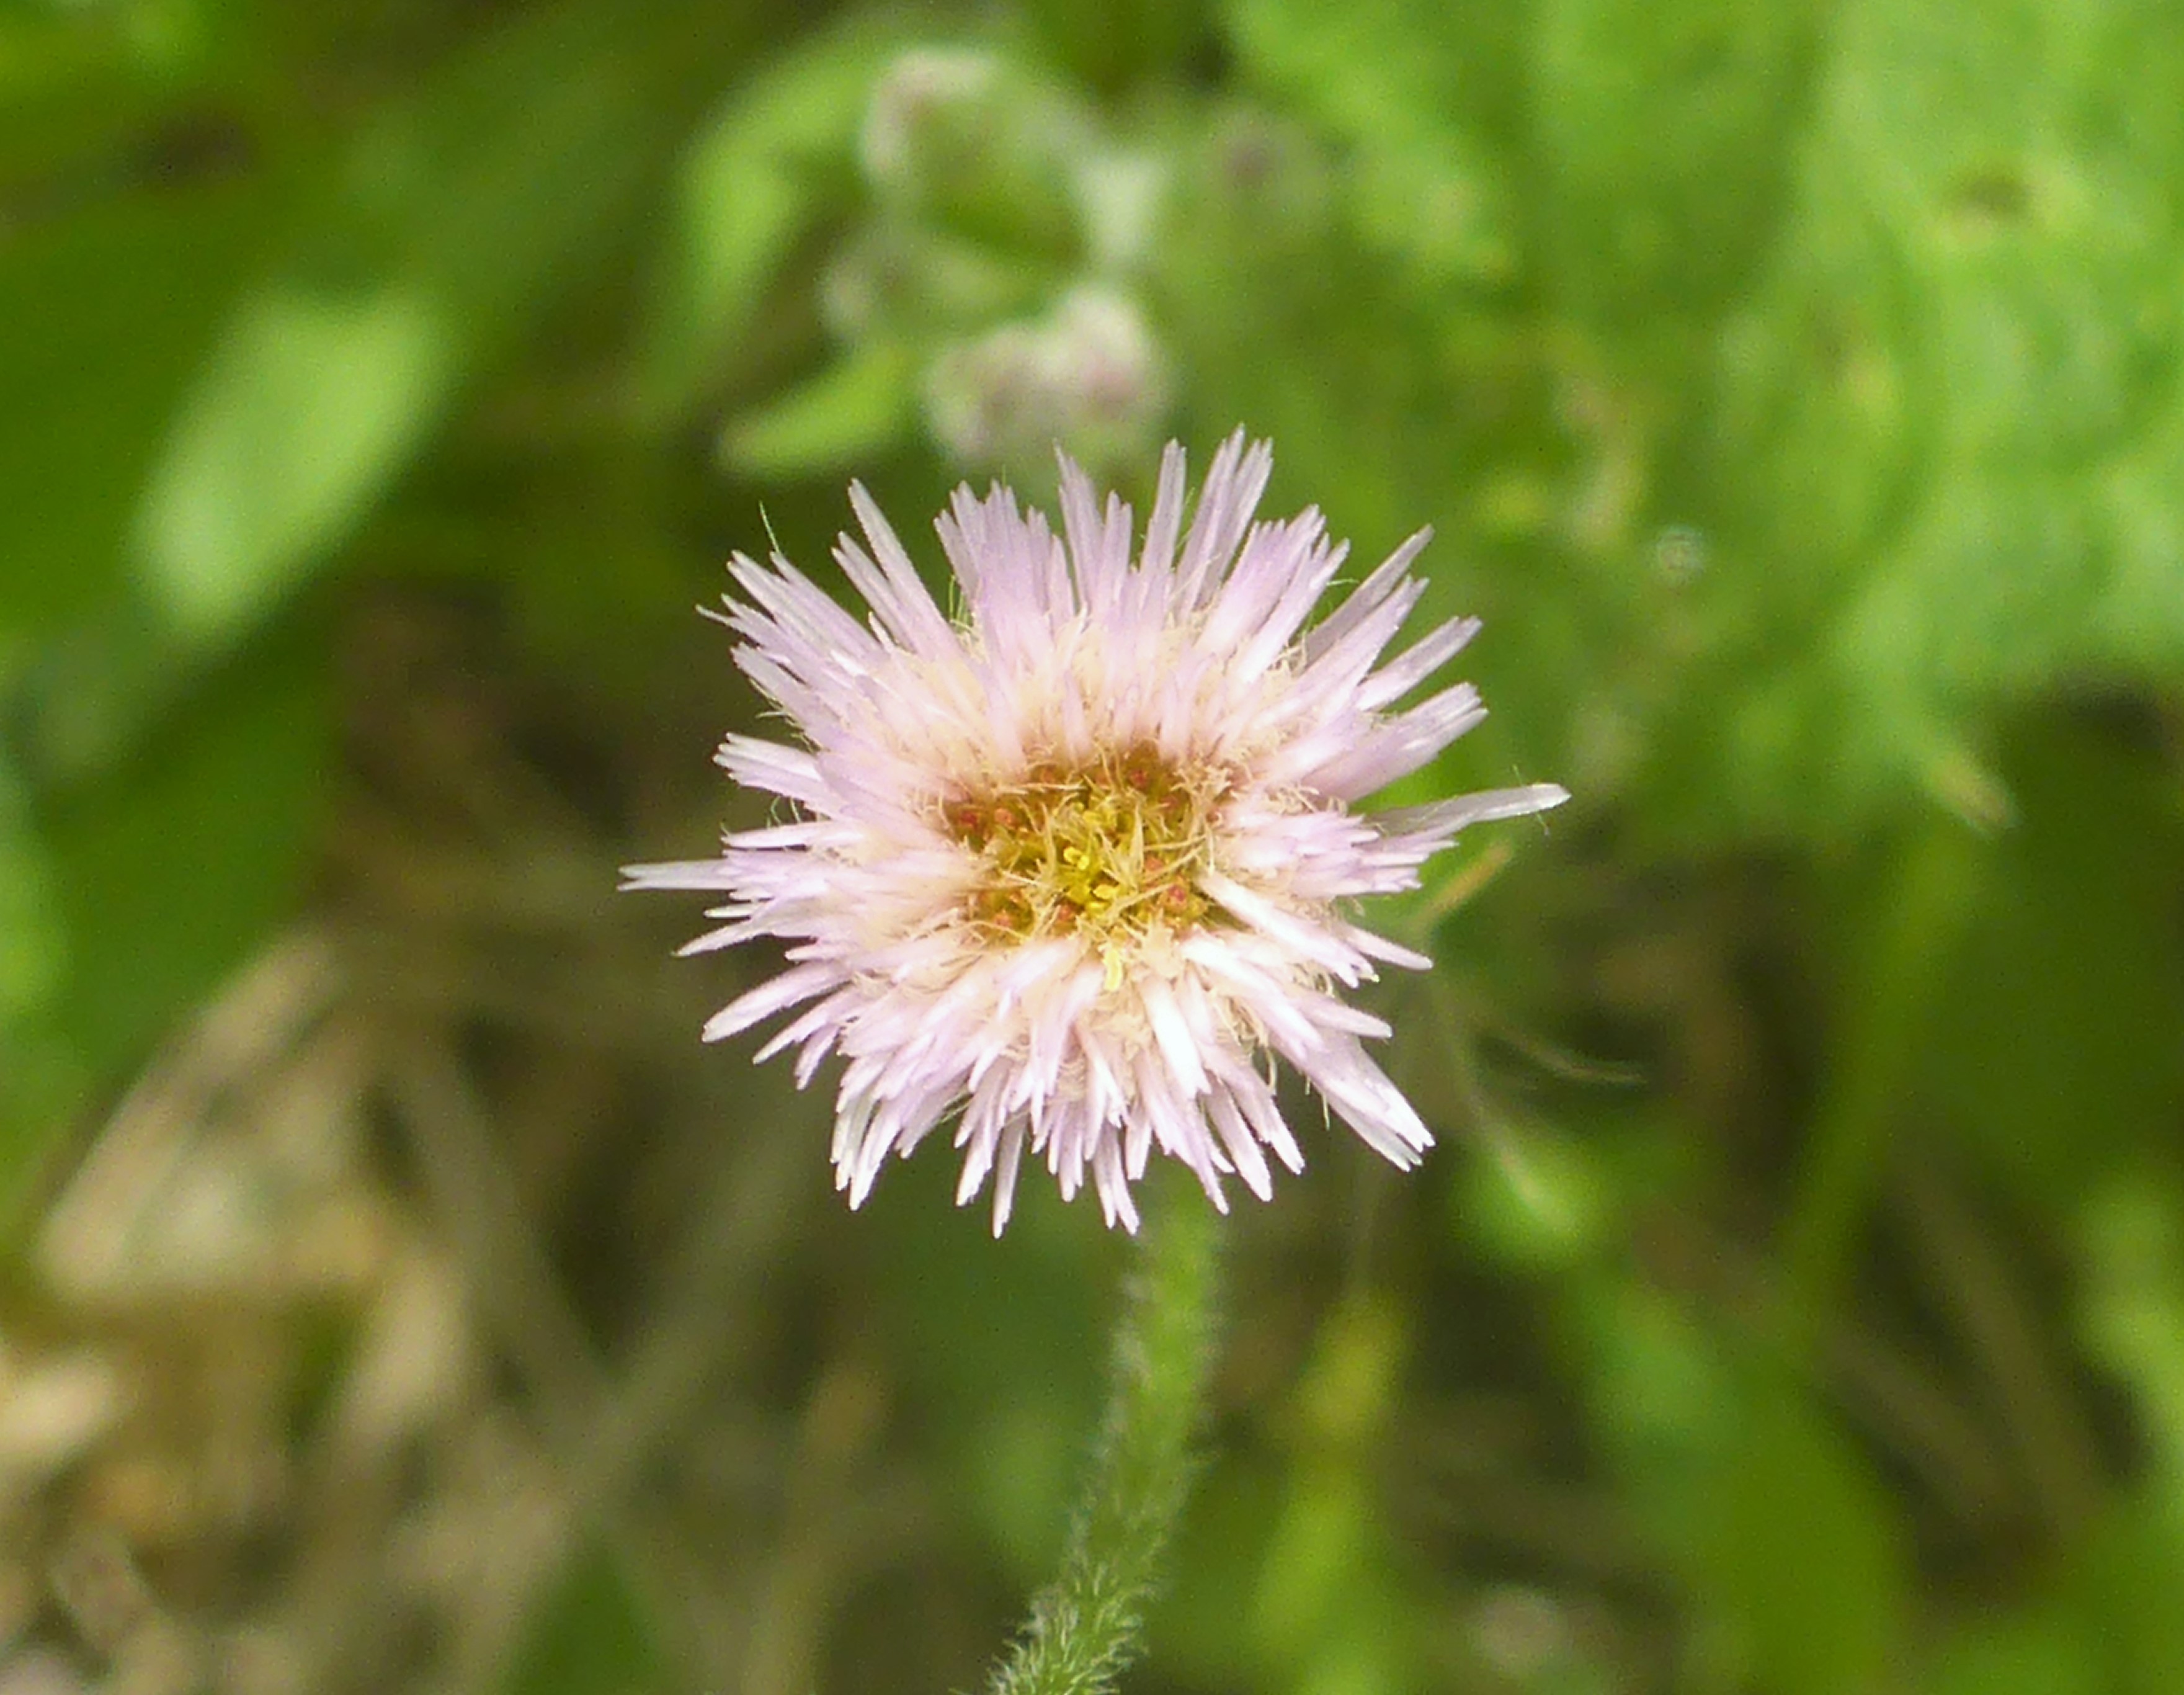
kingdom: Plantae
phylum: Tracheophyta
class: Magnoliopsida
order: Asterales
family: Asteraceae
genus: Erigeron
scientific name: Erigeron acris
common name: Bitter bakkestjerne
